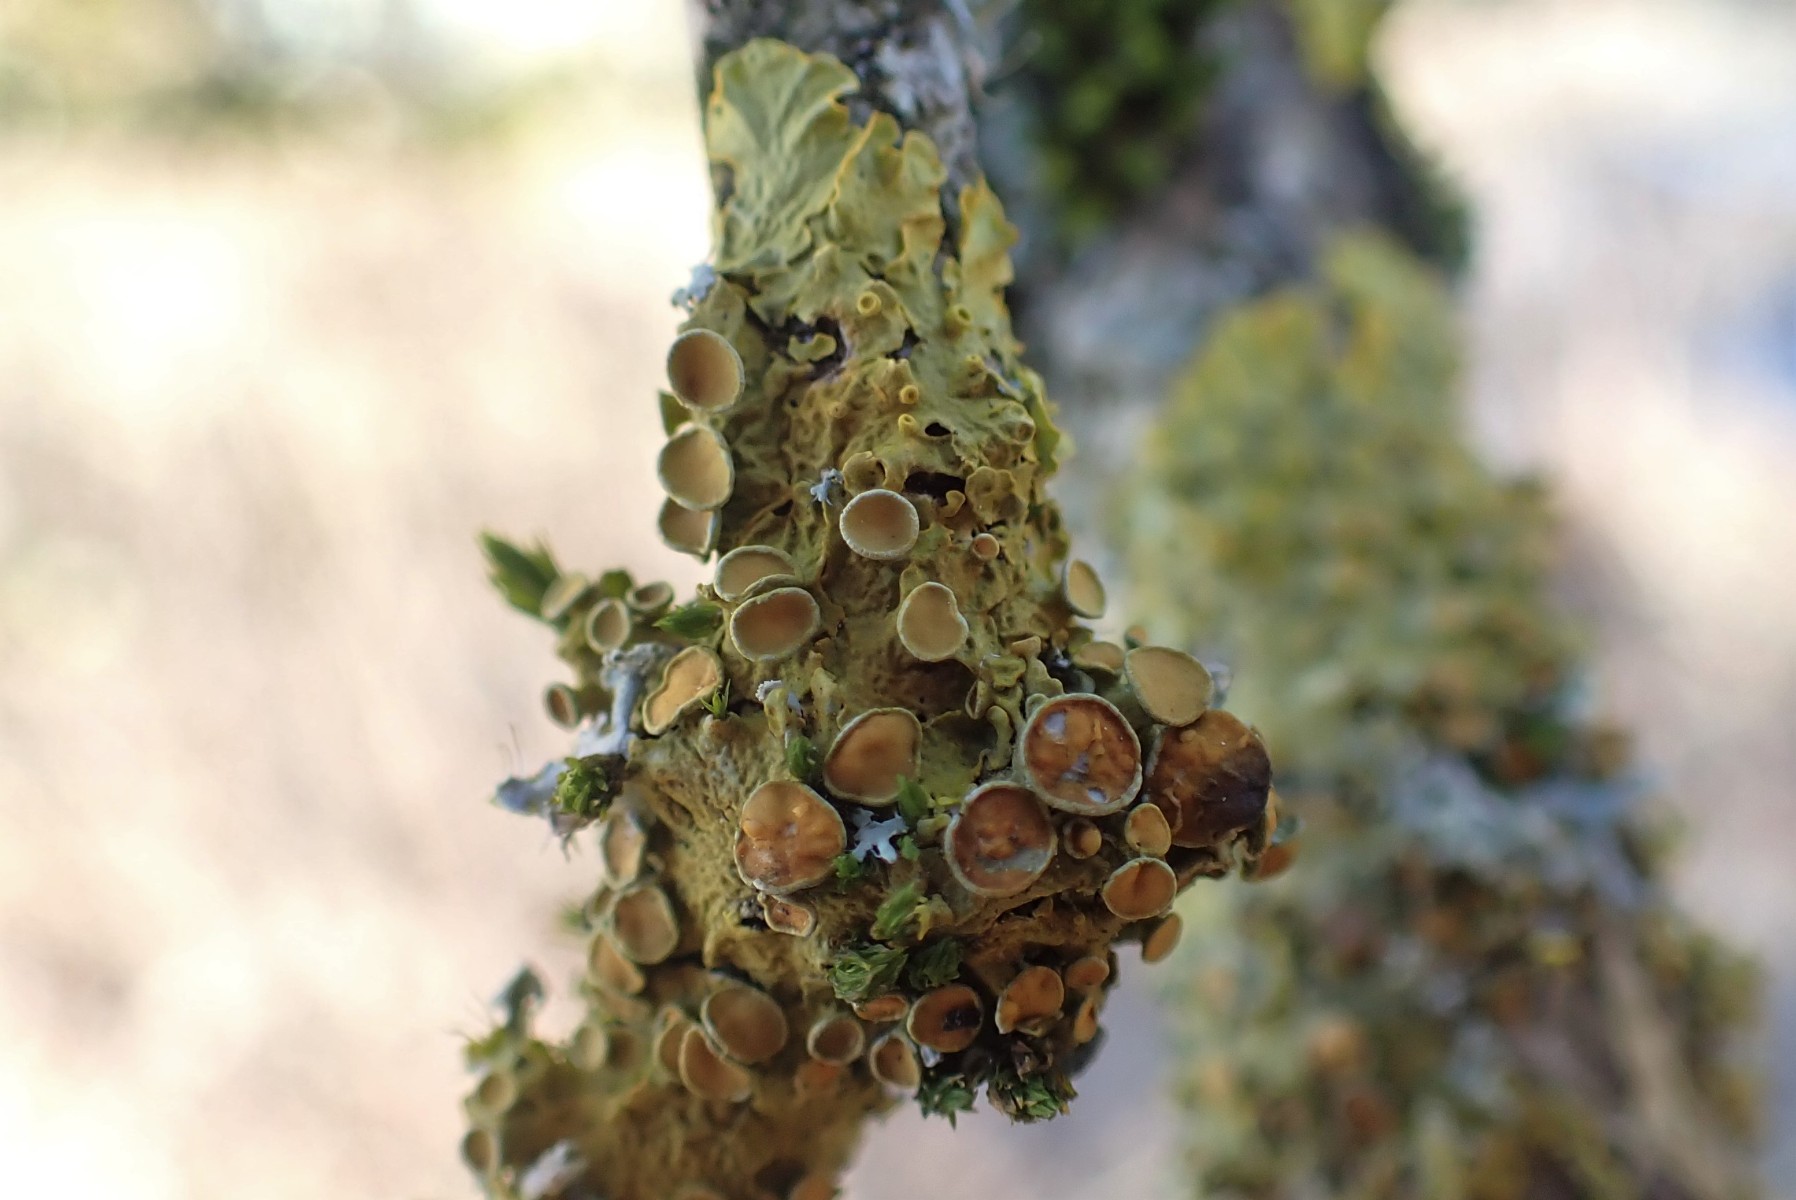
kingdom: Fungi
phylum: Ascomycota
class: Lecanoromycetes
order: Teloschistales
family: Teloschistaceae
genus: Xanthoria
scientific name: Xanthoria parietina
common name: almindelig væggelav
